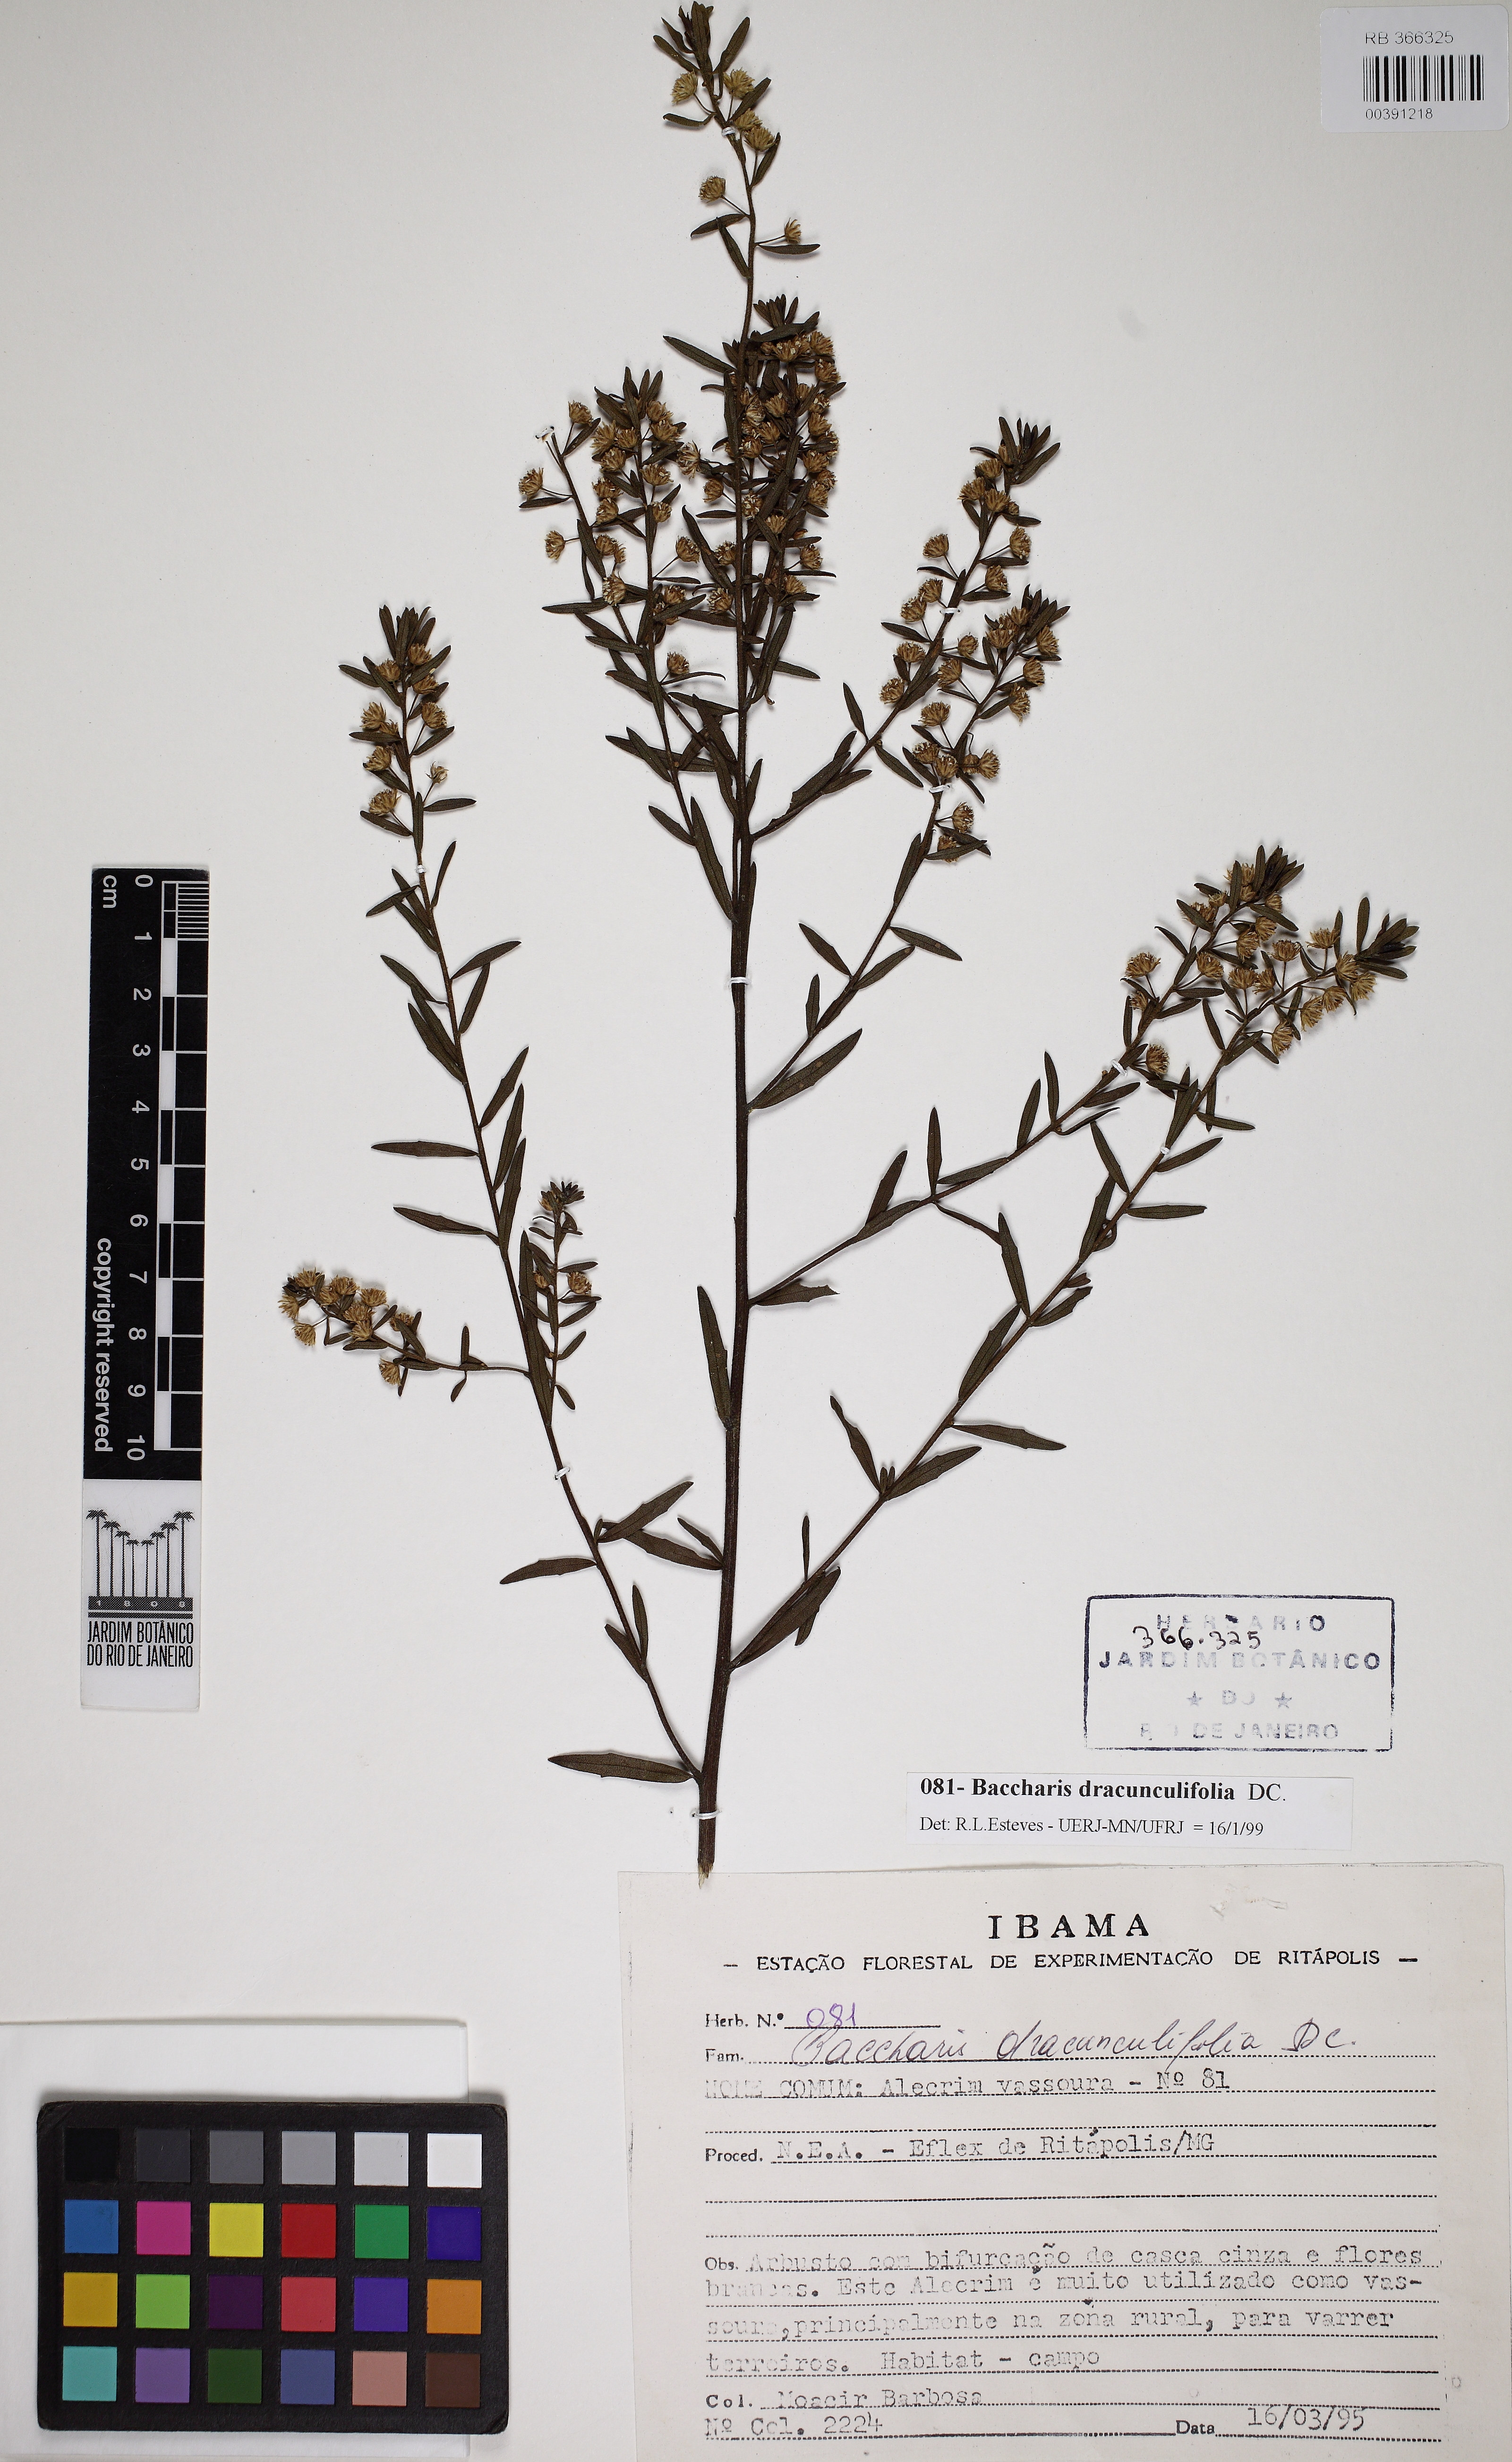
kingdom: Plantae
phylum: Tracheophyta
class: Magnoliopsida
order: Asterales
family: Asteraceae
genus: Baccharis
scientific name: Baccharis dracunculifolia
